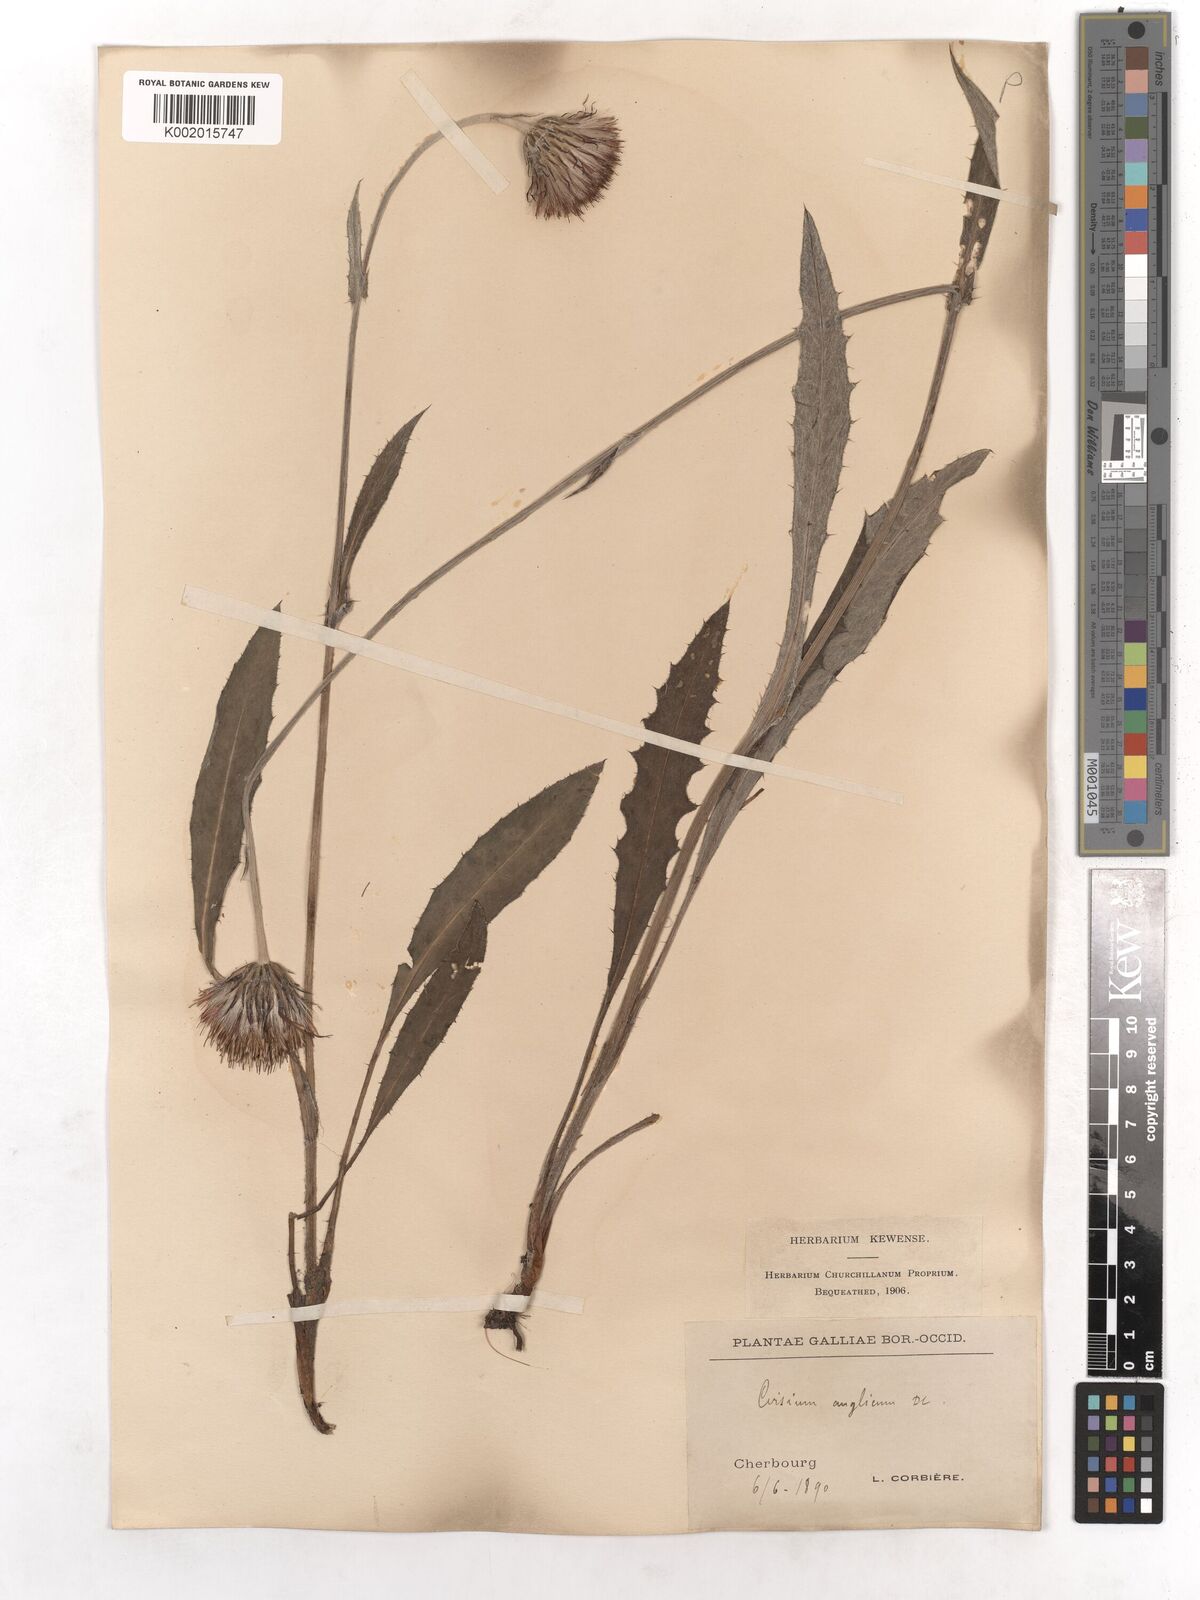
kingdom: Plantae
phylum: Tracheophyta
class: Magnoliopsida
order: Asterales
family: Asteraceae
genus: Cirsium
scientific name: Cirsium dissectum
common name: Meadow thistle
